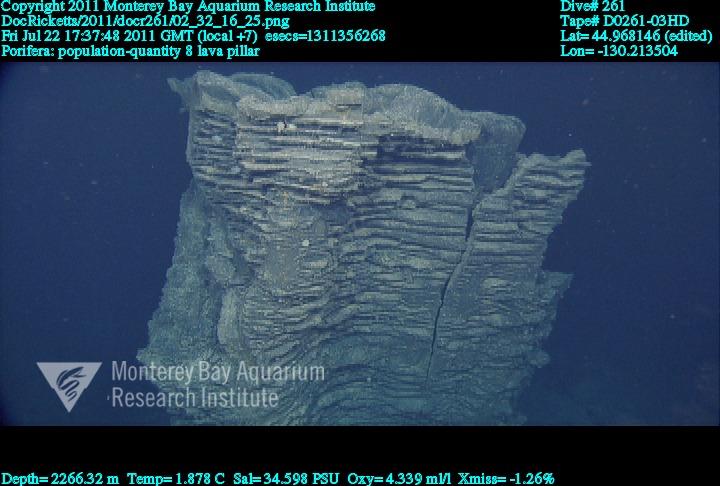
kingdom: Animalia
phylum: Porifera
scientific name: Porifera
